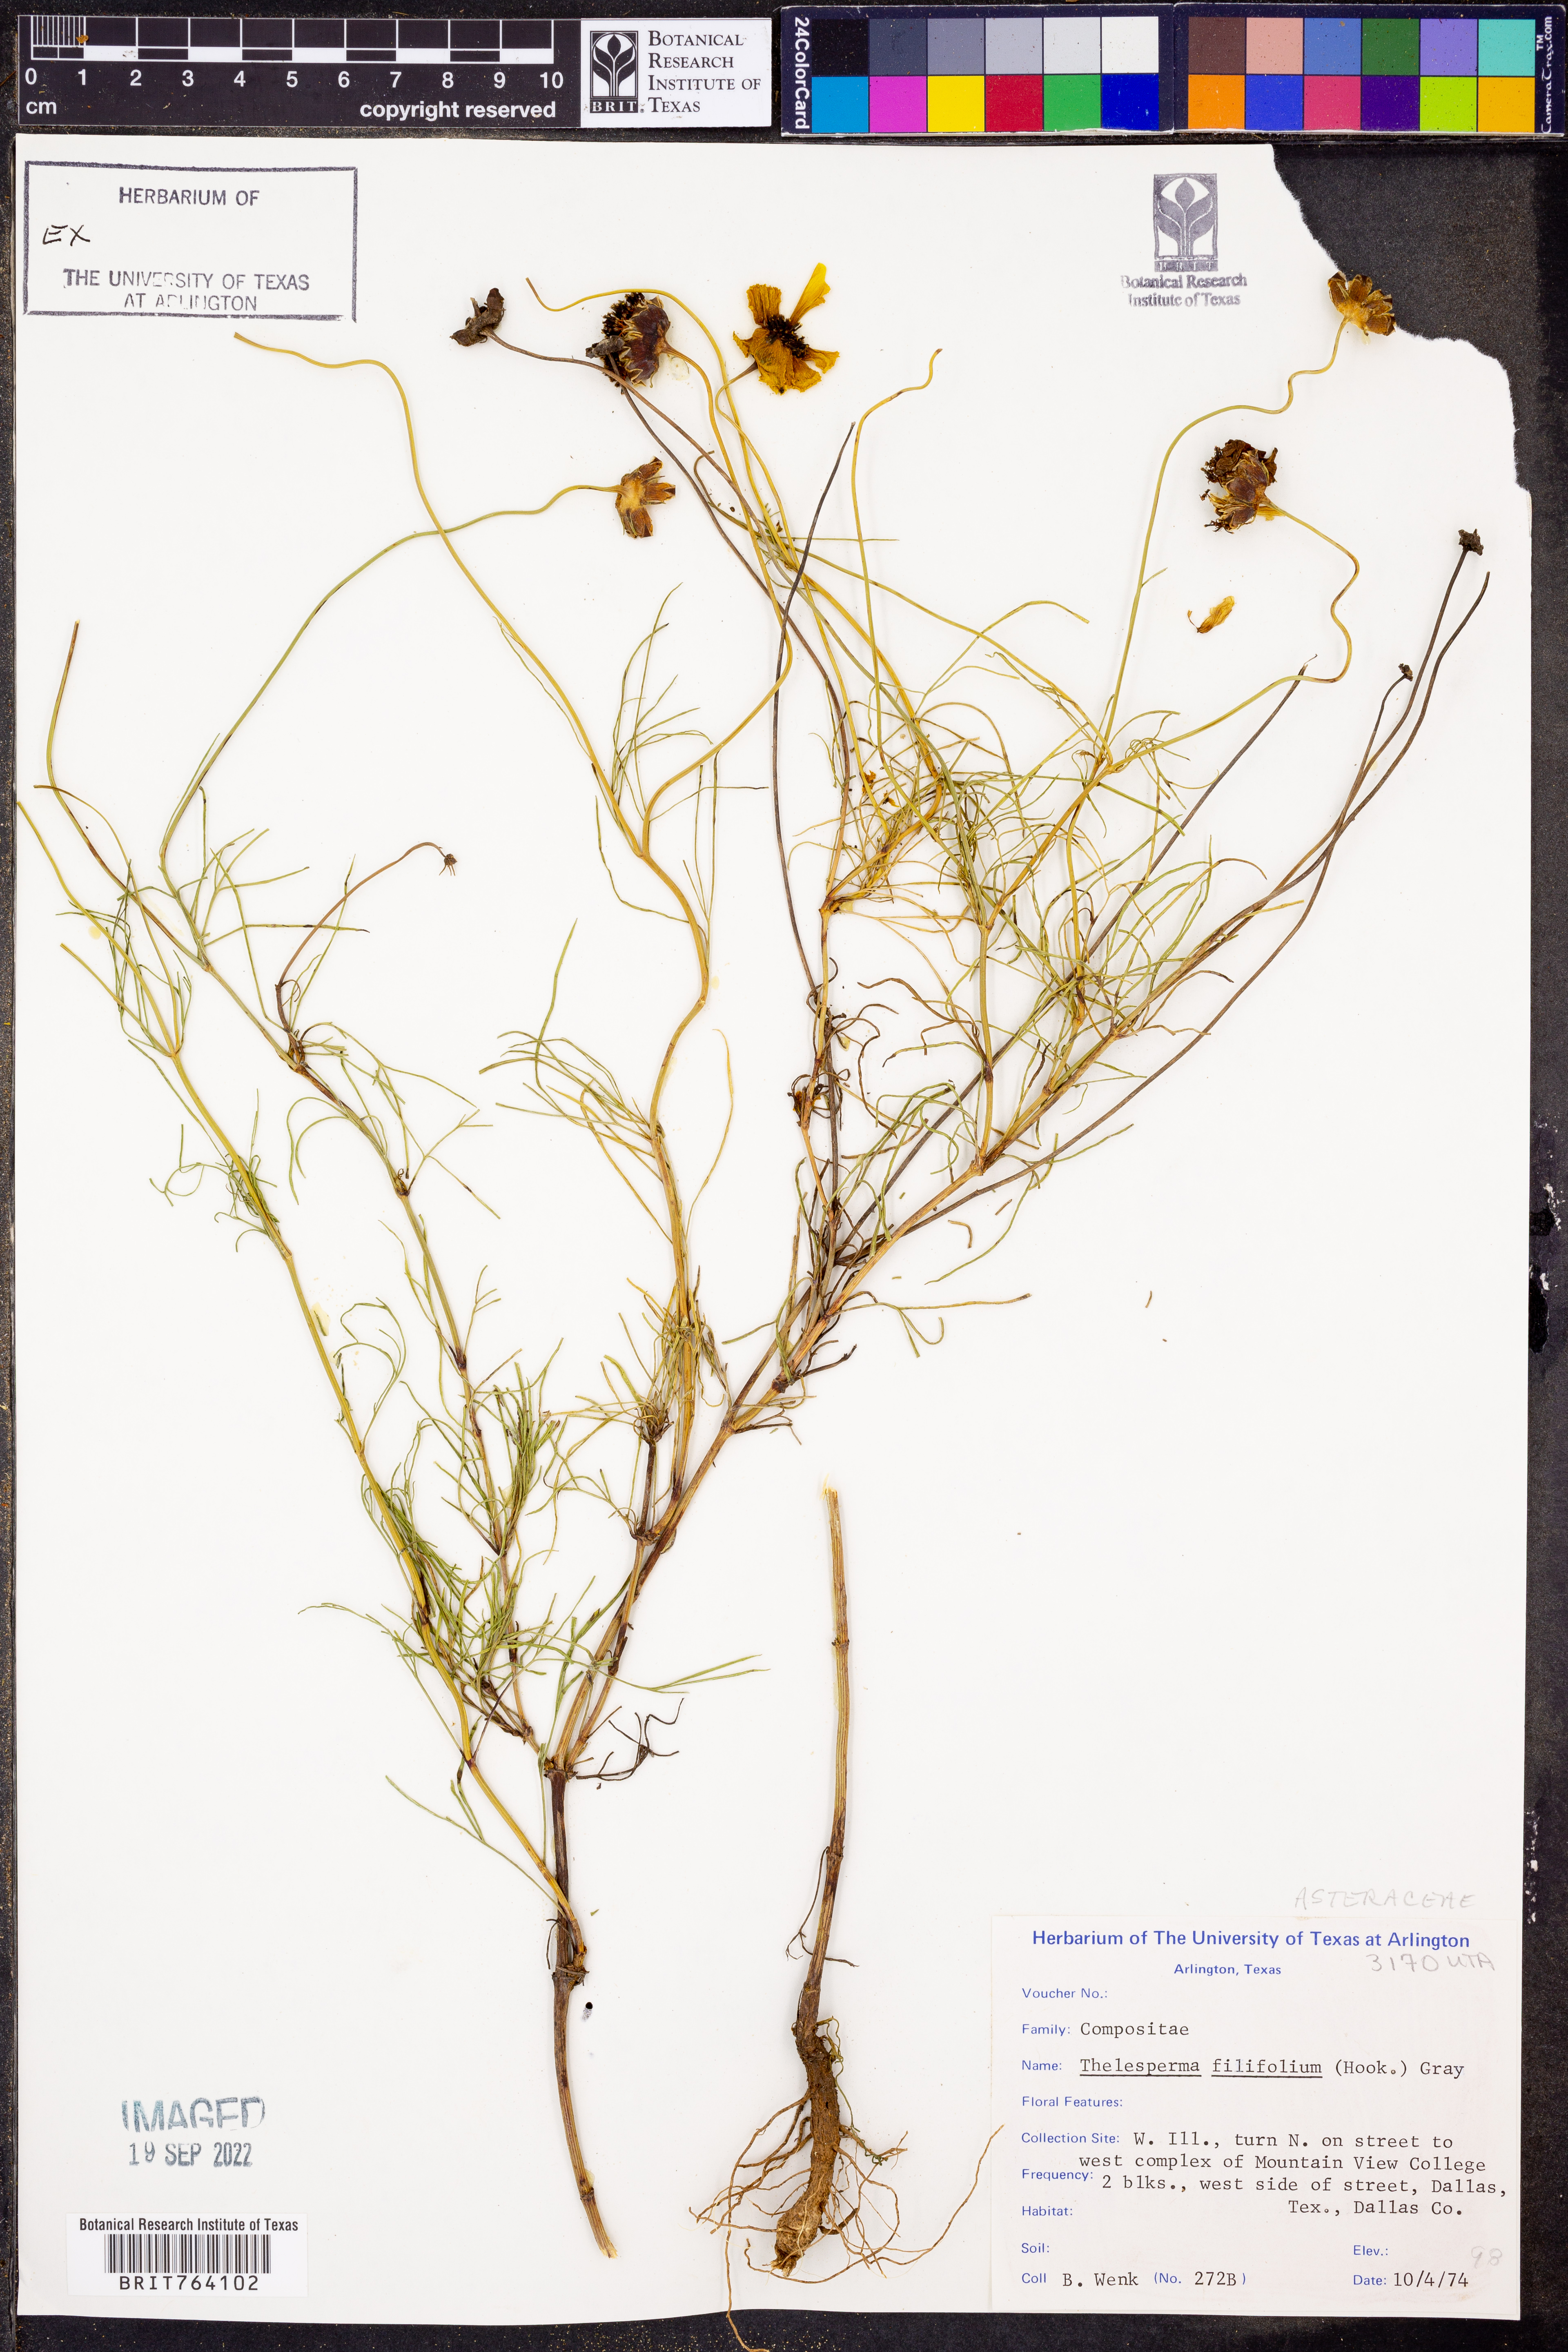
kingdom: Plantae
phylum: Tracheophyta
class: Magnoliopsida
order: Asterales
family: Asteraceae
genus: Thelesperma
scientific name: Thelesperma filifolium
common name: Stiff greenthread
